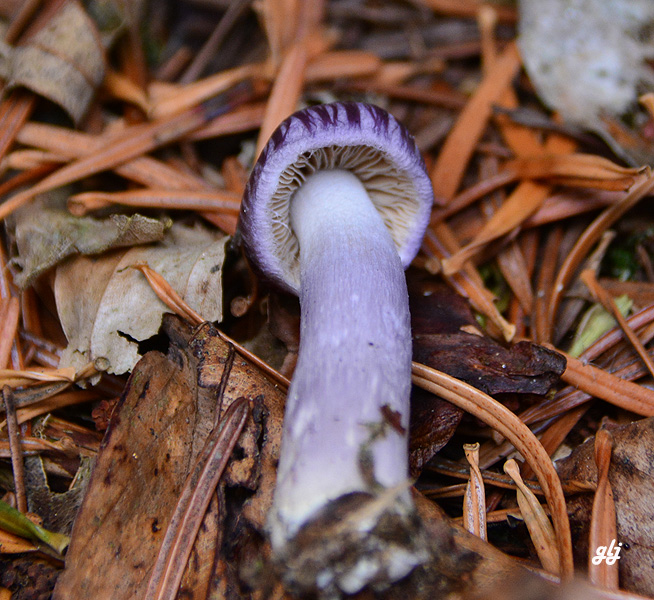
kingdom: Fungi
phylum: Basidiomycota
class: Agaricomycetes
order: Agaricales
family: Inocybaceae
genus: Inocybe
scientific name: Inocybe geophylla
